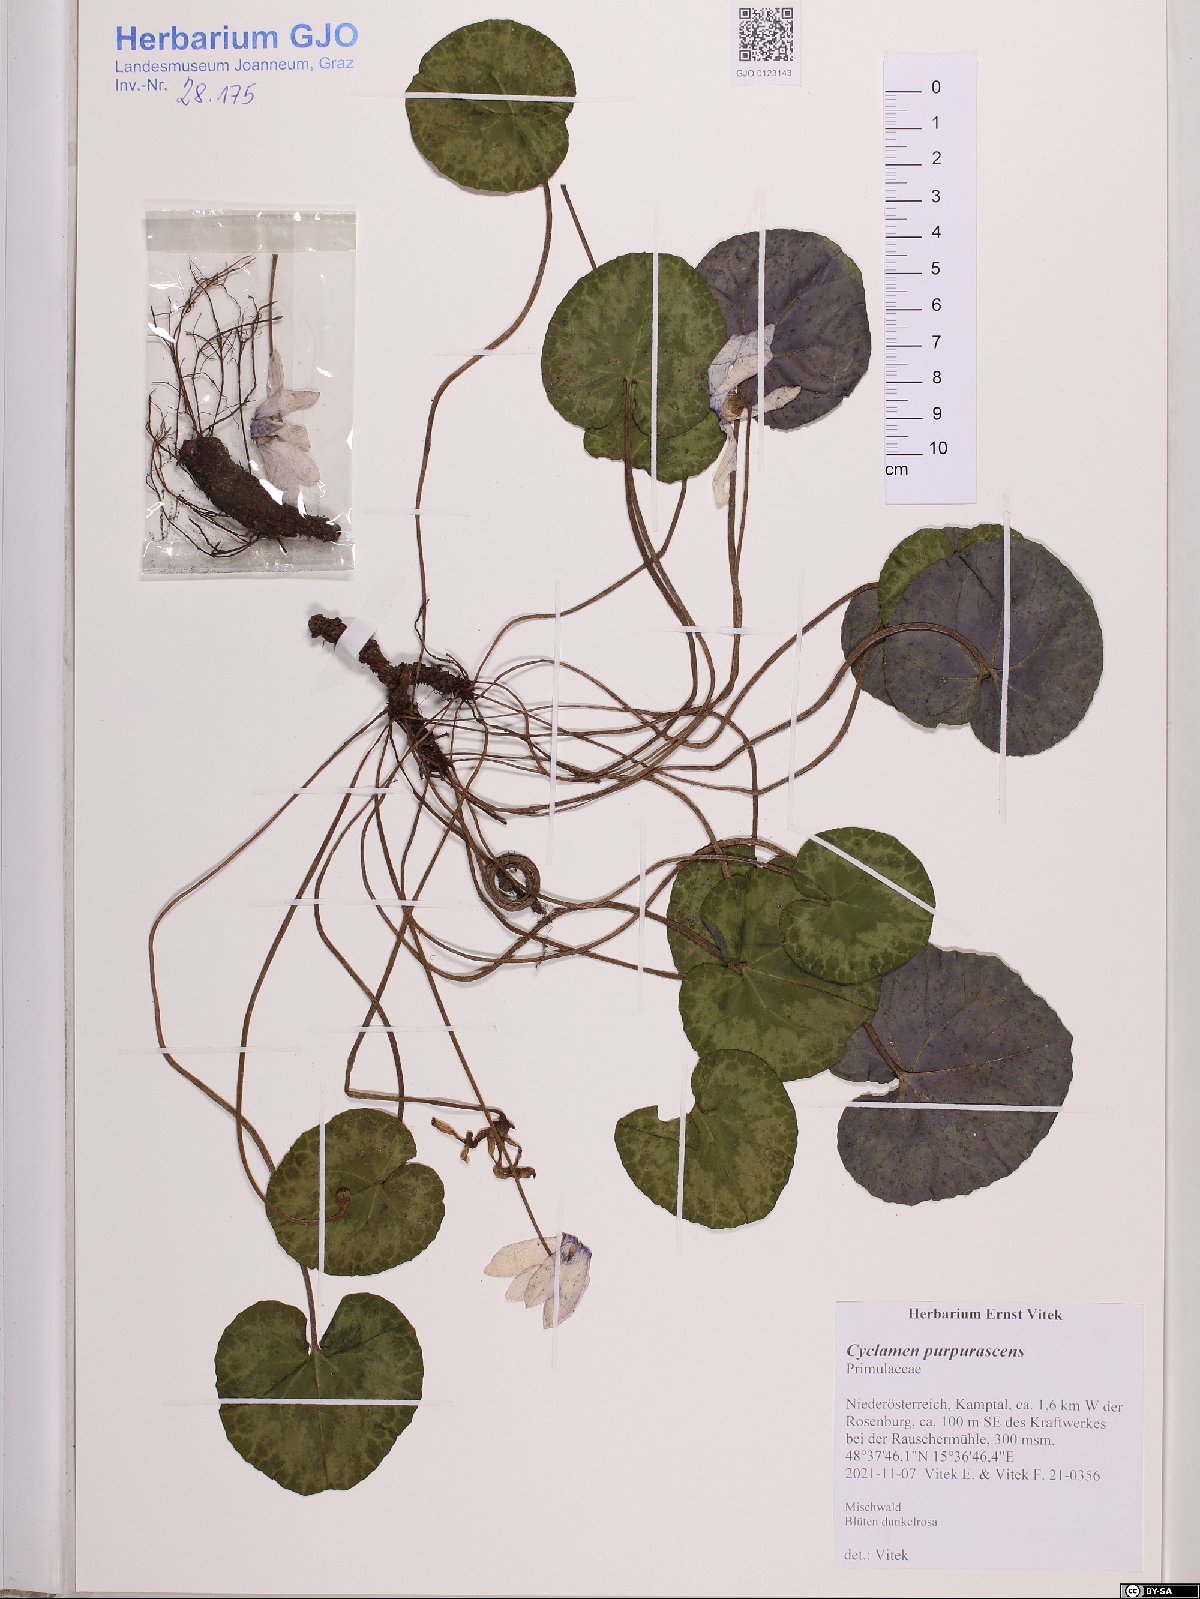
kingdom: Plantae
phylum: Tracheophyta
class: Magnoliopsida
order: Ericales
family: Primulaceae
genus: Cyclamen
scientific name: Cyclamen purpurascens
